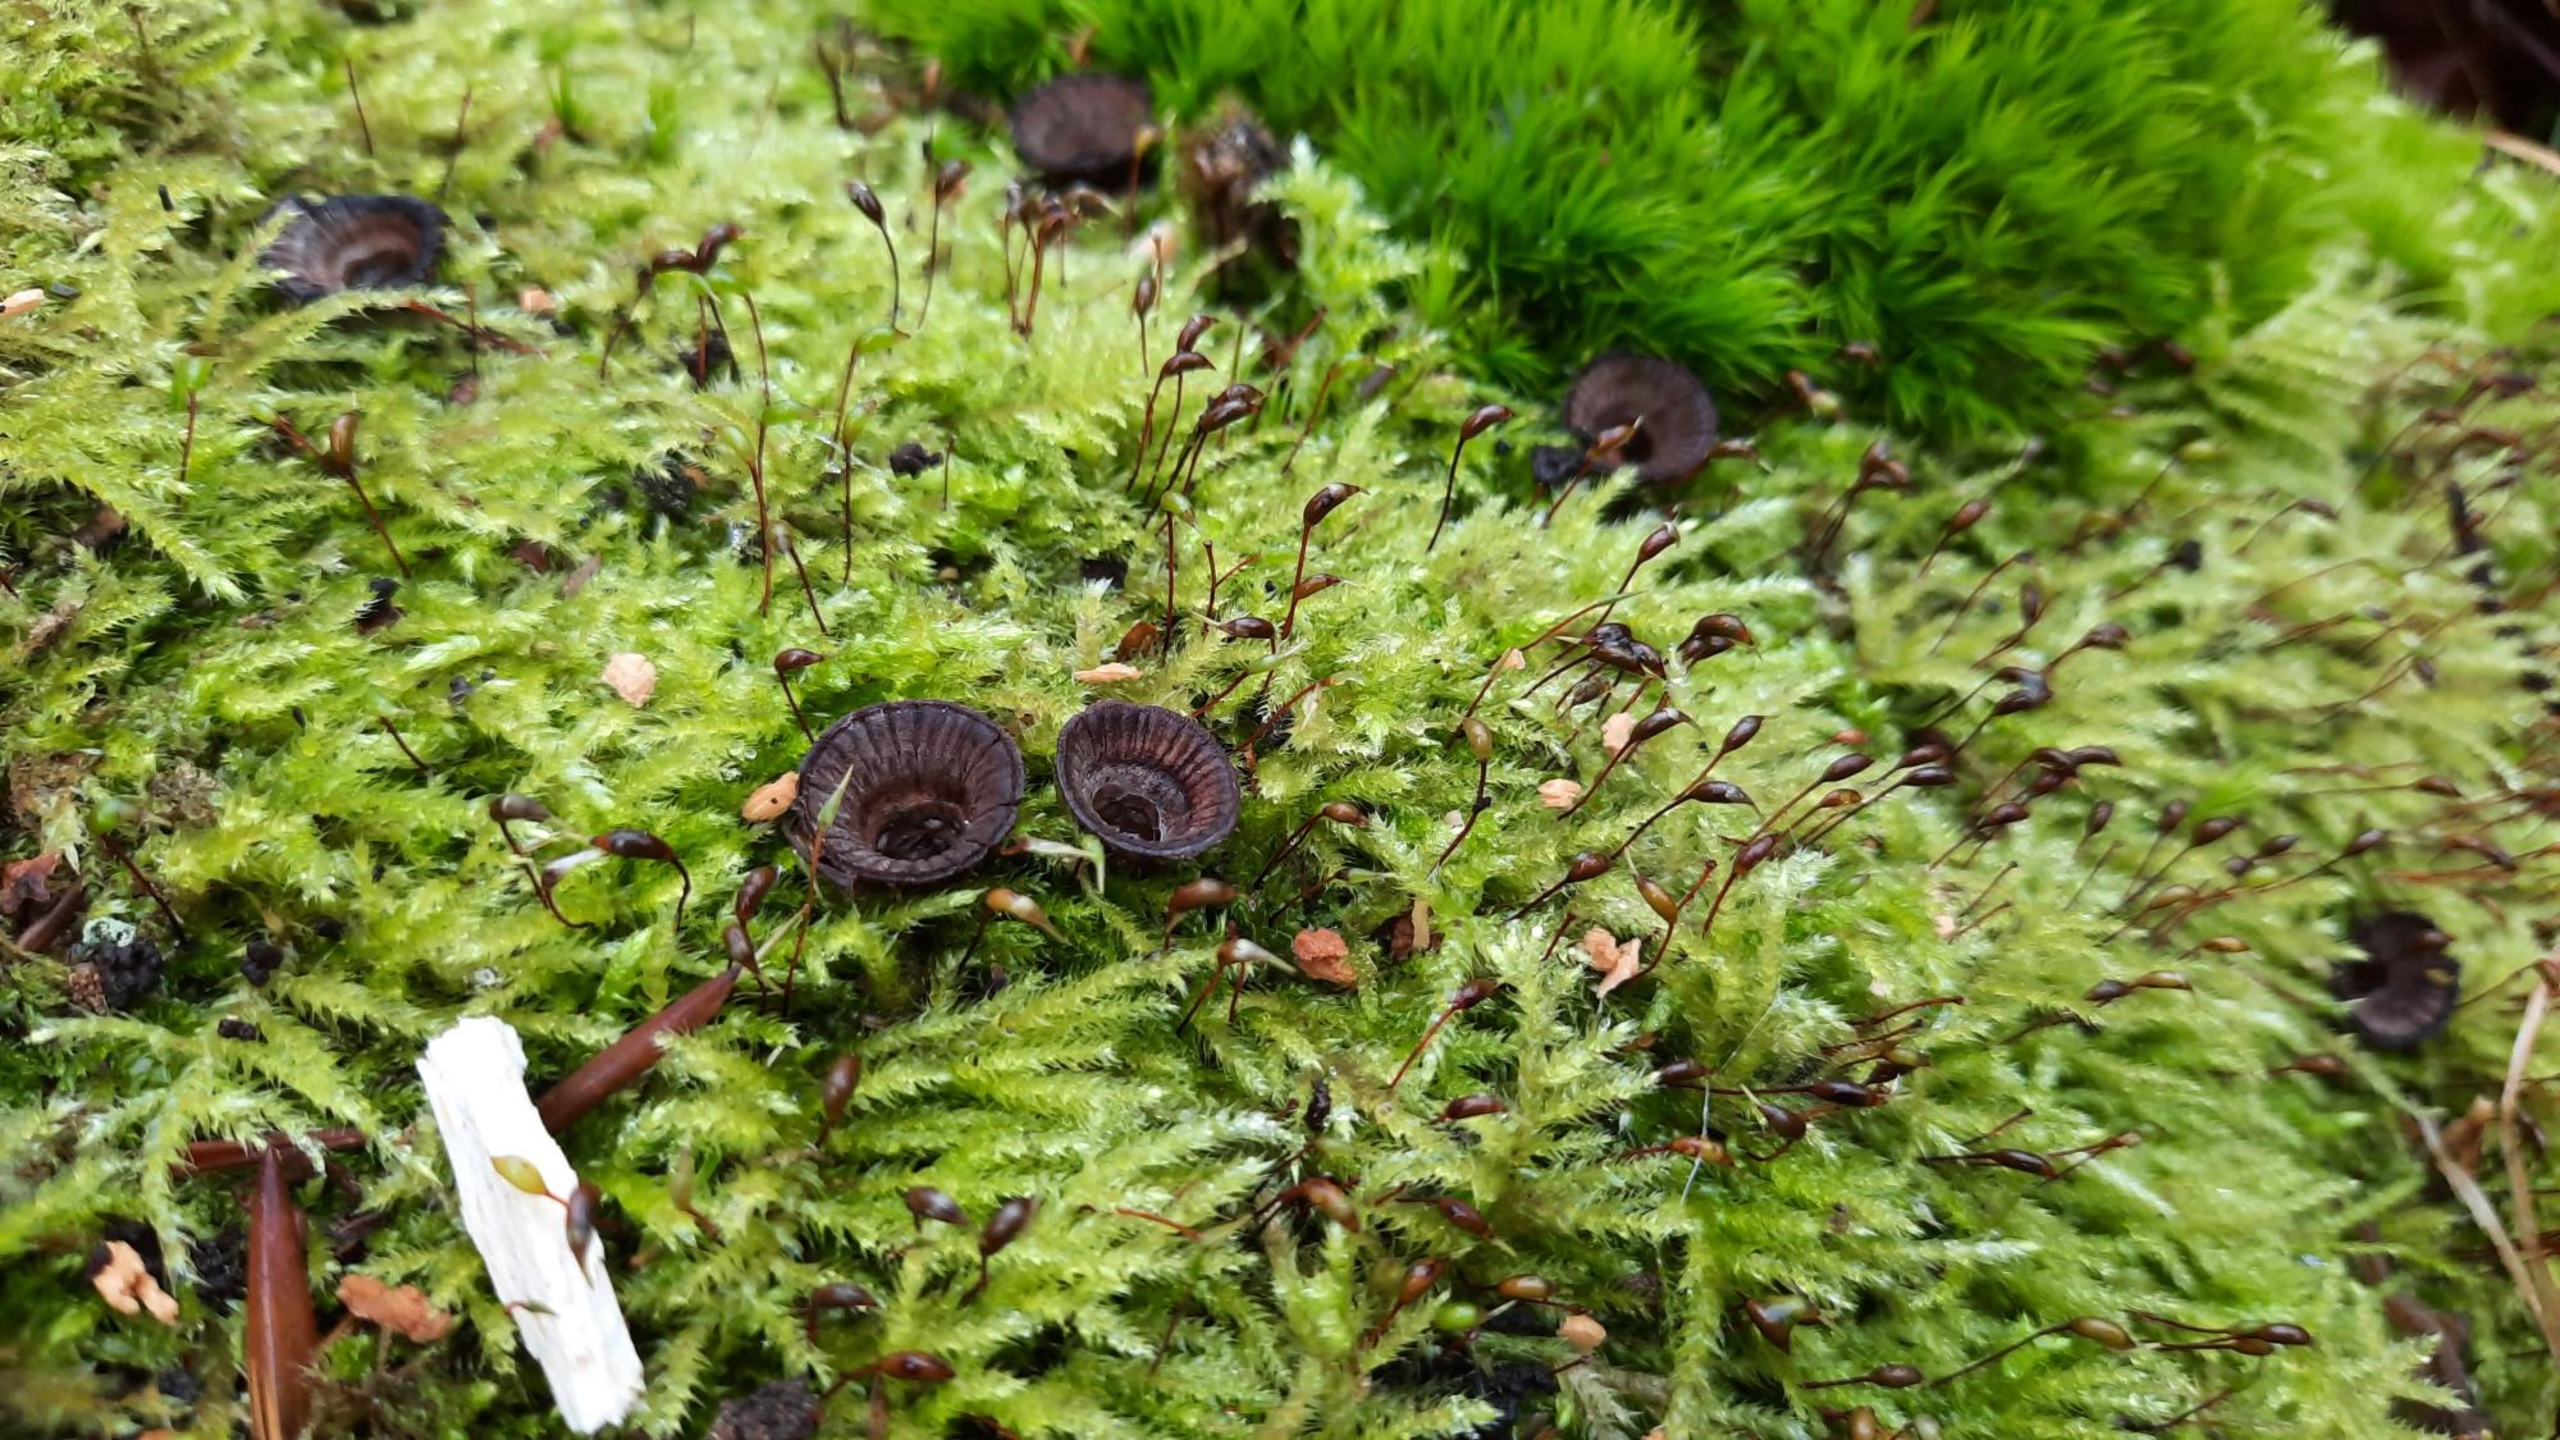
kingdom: Fungi
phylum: Basidiomycota
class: Agaricomycetes
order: Agaricales
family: Agaricaceae
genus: Cyathus
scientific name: Cyathus striatus
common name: Stribet redesvamp
